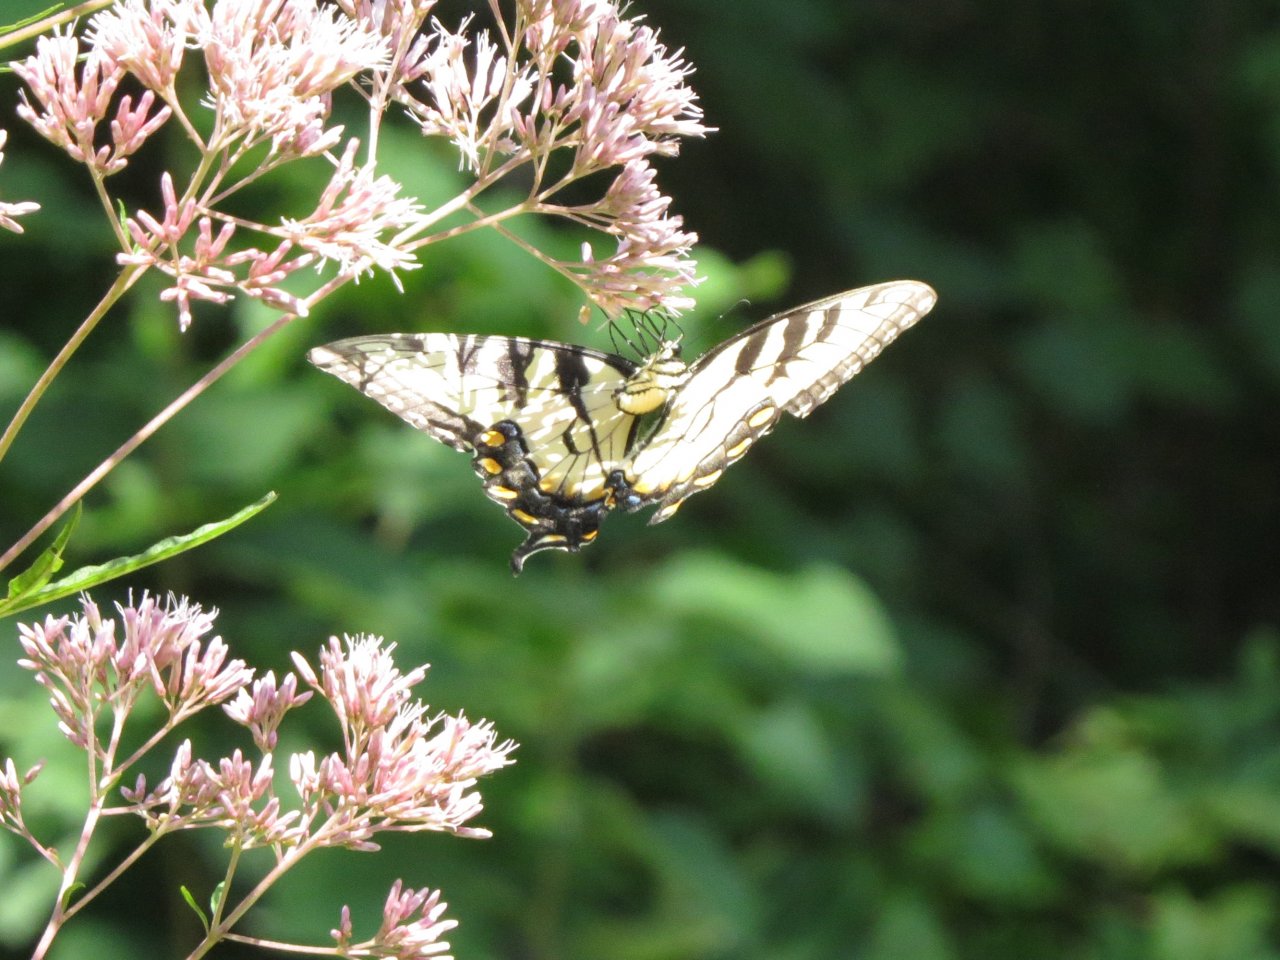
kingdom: Animalia
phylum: Arthropoda
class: Insecta
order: Lepidoptera
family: Papilionidae
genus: Pterourus
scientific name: Pterourus glaucus
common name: Eastern Tiger Swallowtail
